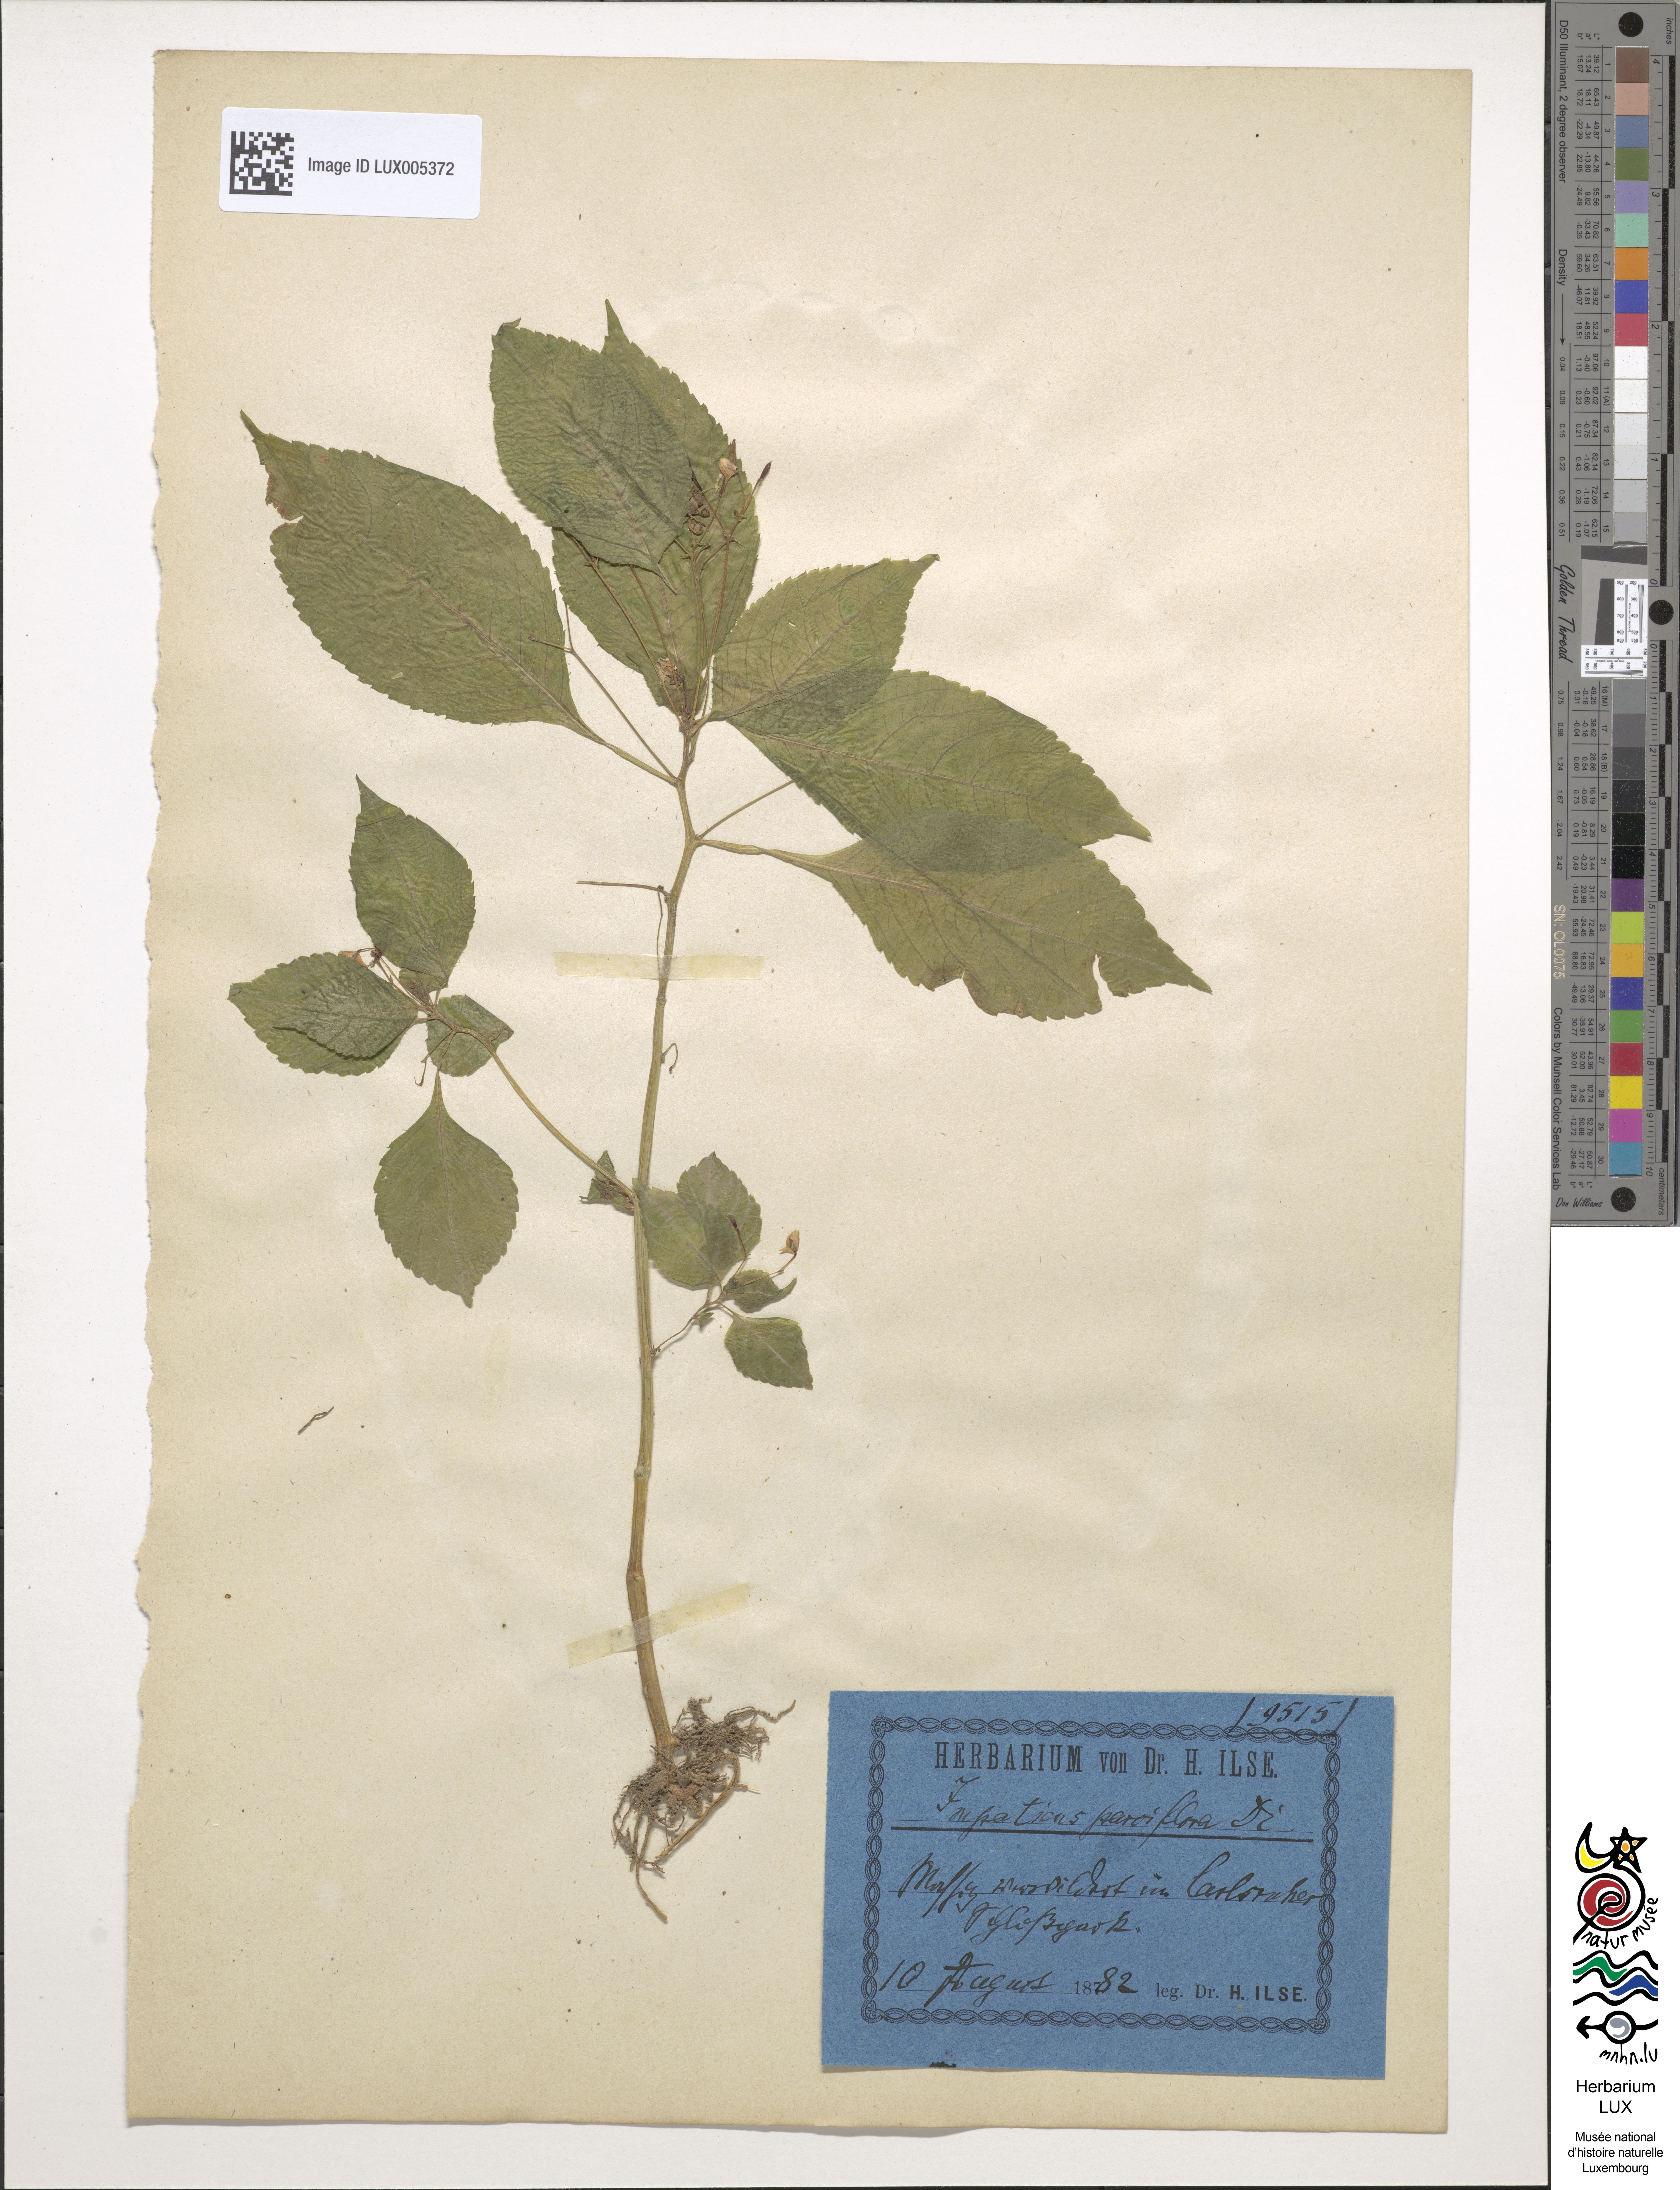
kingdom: Plantae
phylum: Tracheophyta
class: Magnoliopsida
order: Ericales
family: Balsaminaceae
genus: Impatiens
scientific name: Impatiens parviflora
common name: Small balsam
